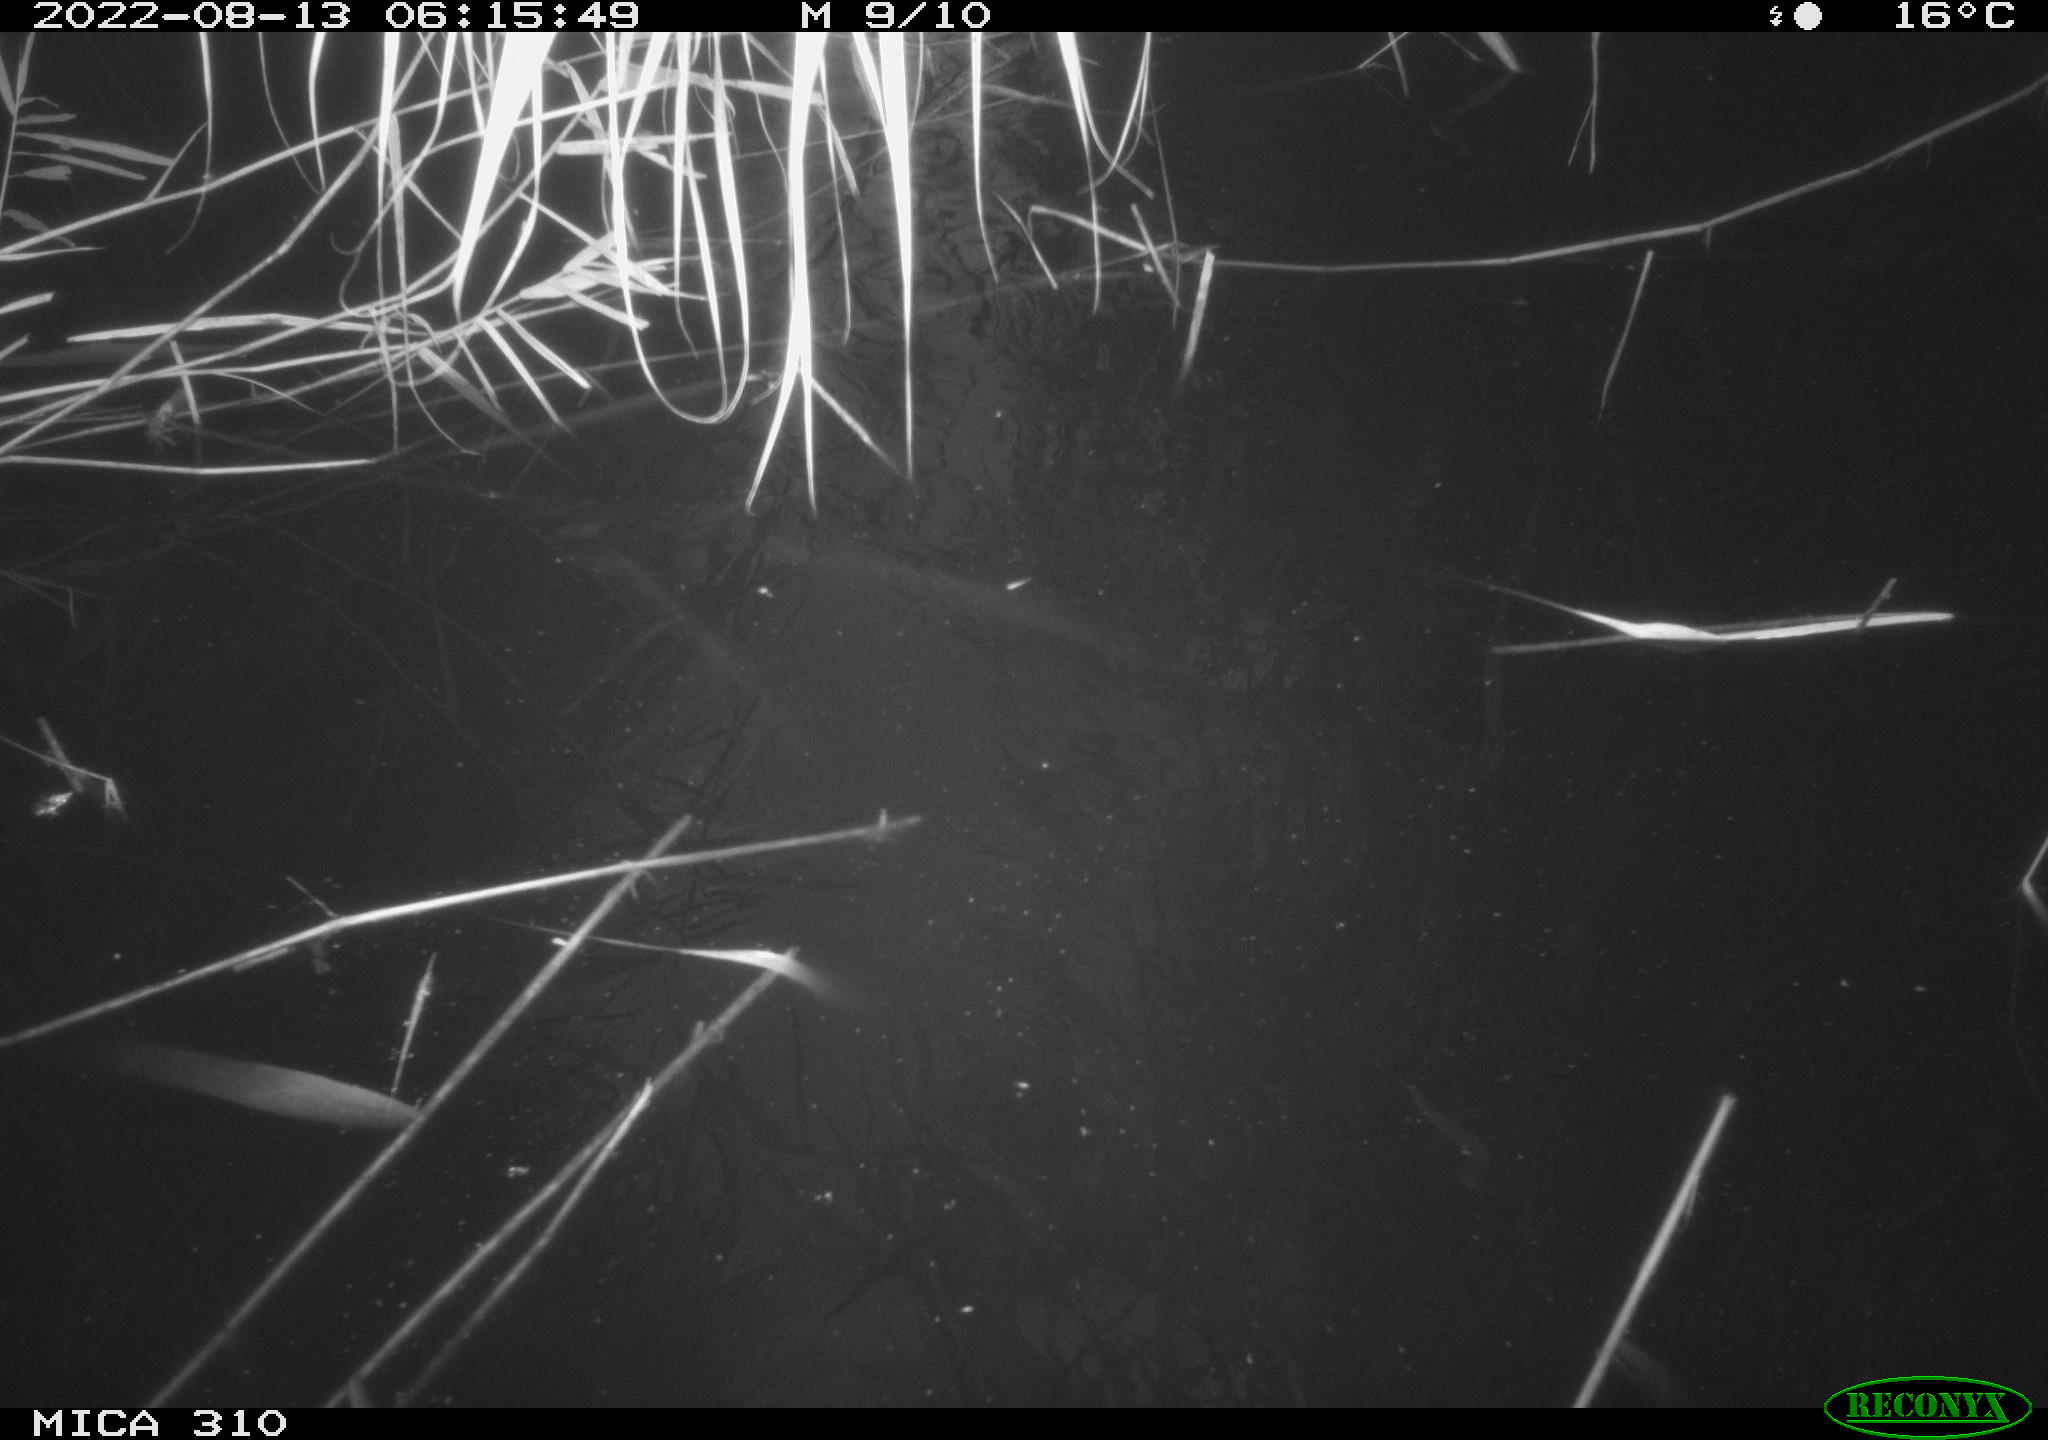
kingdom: Animalia
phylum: Chordata
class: Aves
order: Anseriformes
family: Anatidae
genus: Anas
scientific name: Anas platyrhynchos
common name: Mallard
